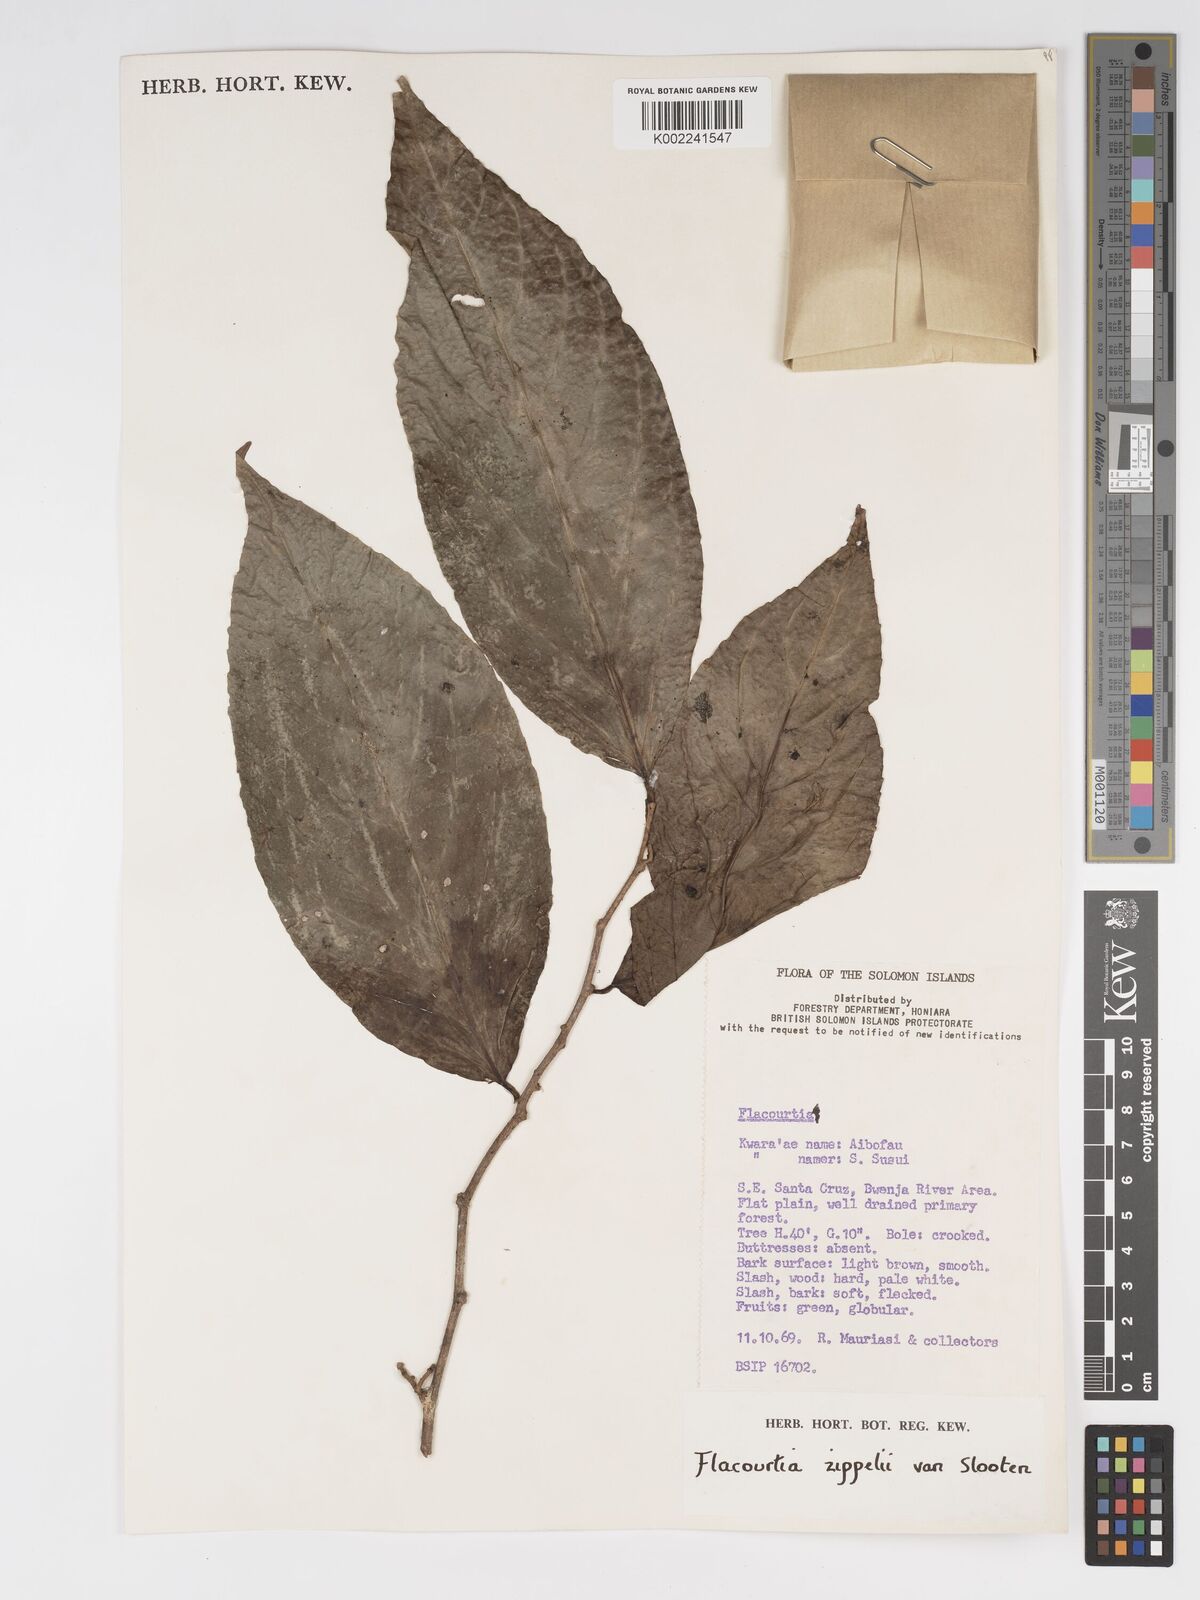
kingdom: Plantae
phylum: Tracheophyta
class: Magnoliopsida
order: Malpighiales
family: Salicaceae
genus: Flacourtia
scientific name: Flacourtia zippelii
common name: Zippeli plum
